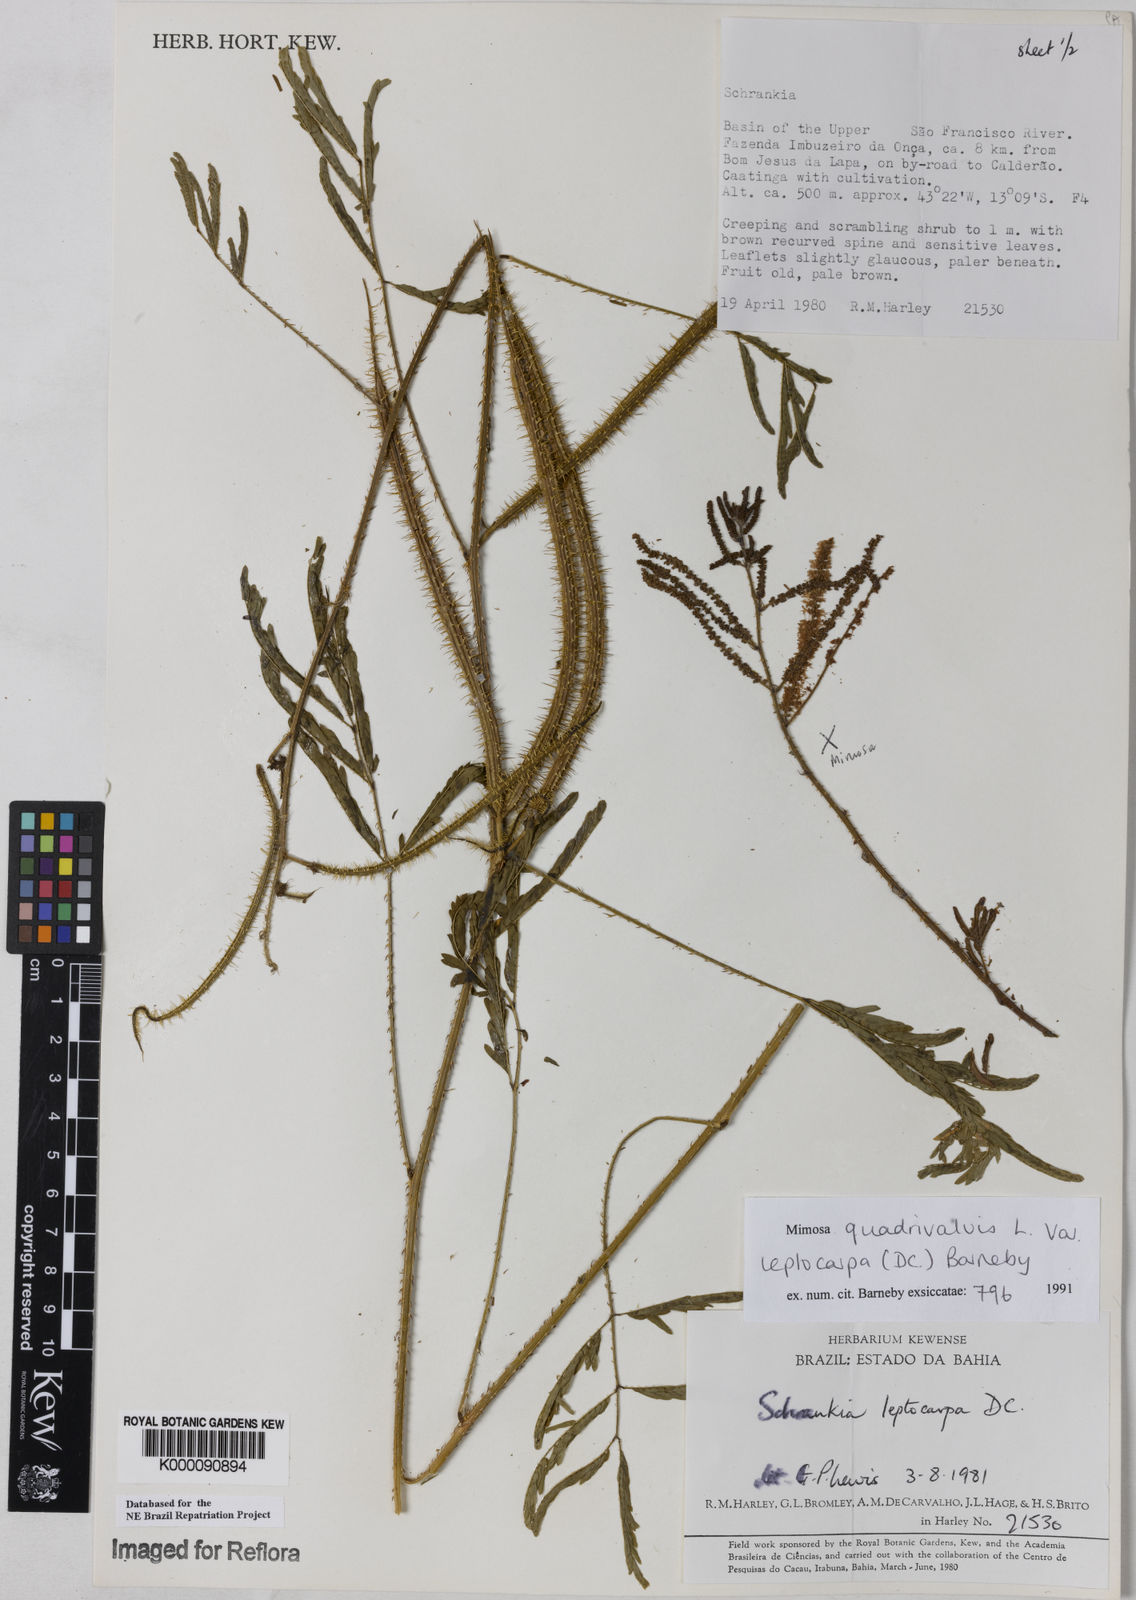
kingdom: Plantae
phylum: Tracheophyta
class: Magnoliopsida
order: Fabales
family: Fabaceae
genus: Mimosa
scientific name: Mimosa candollei
